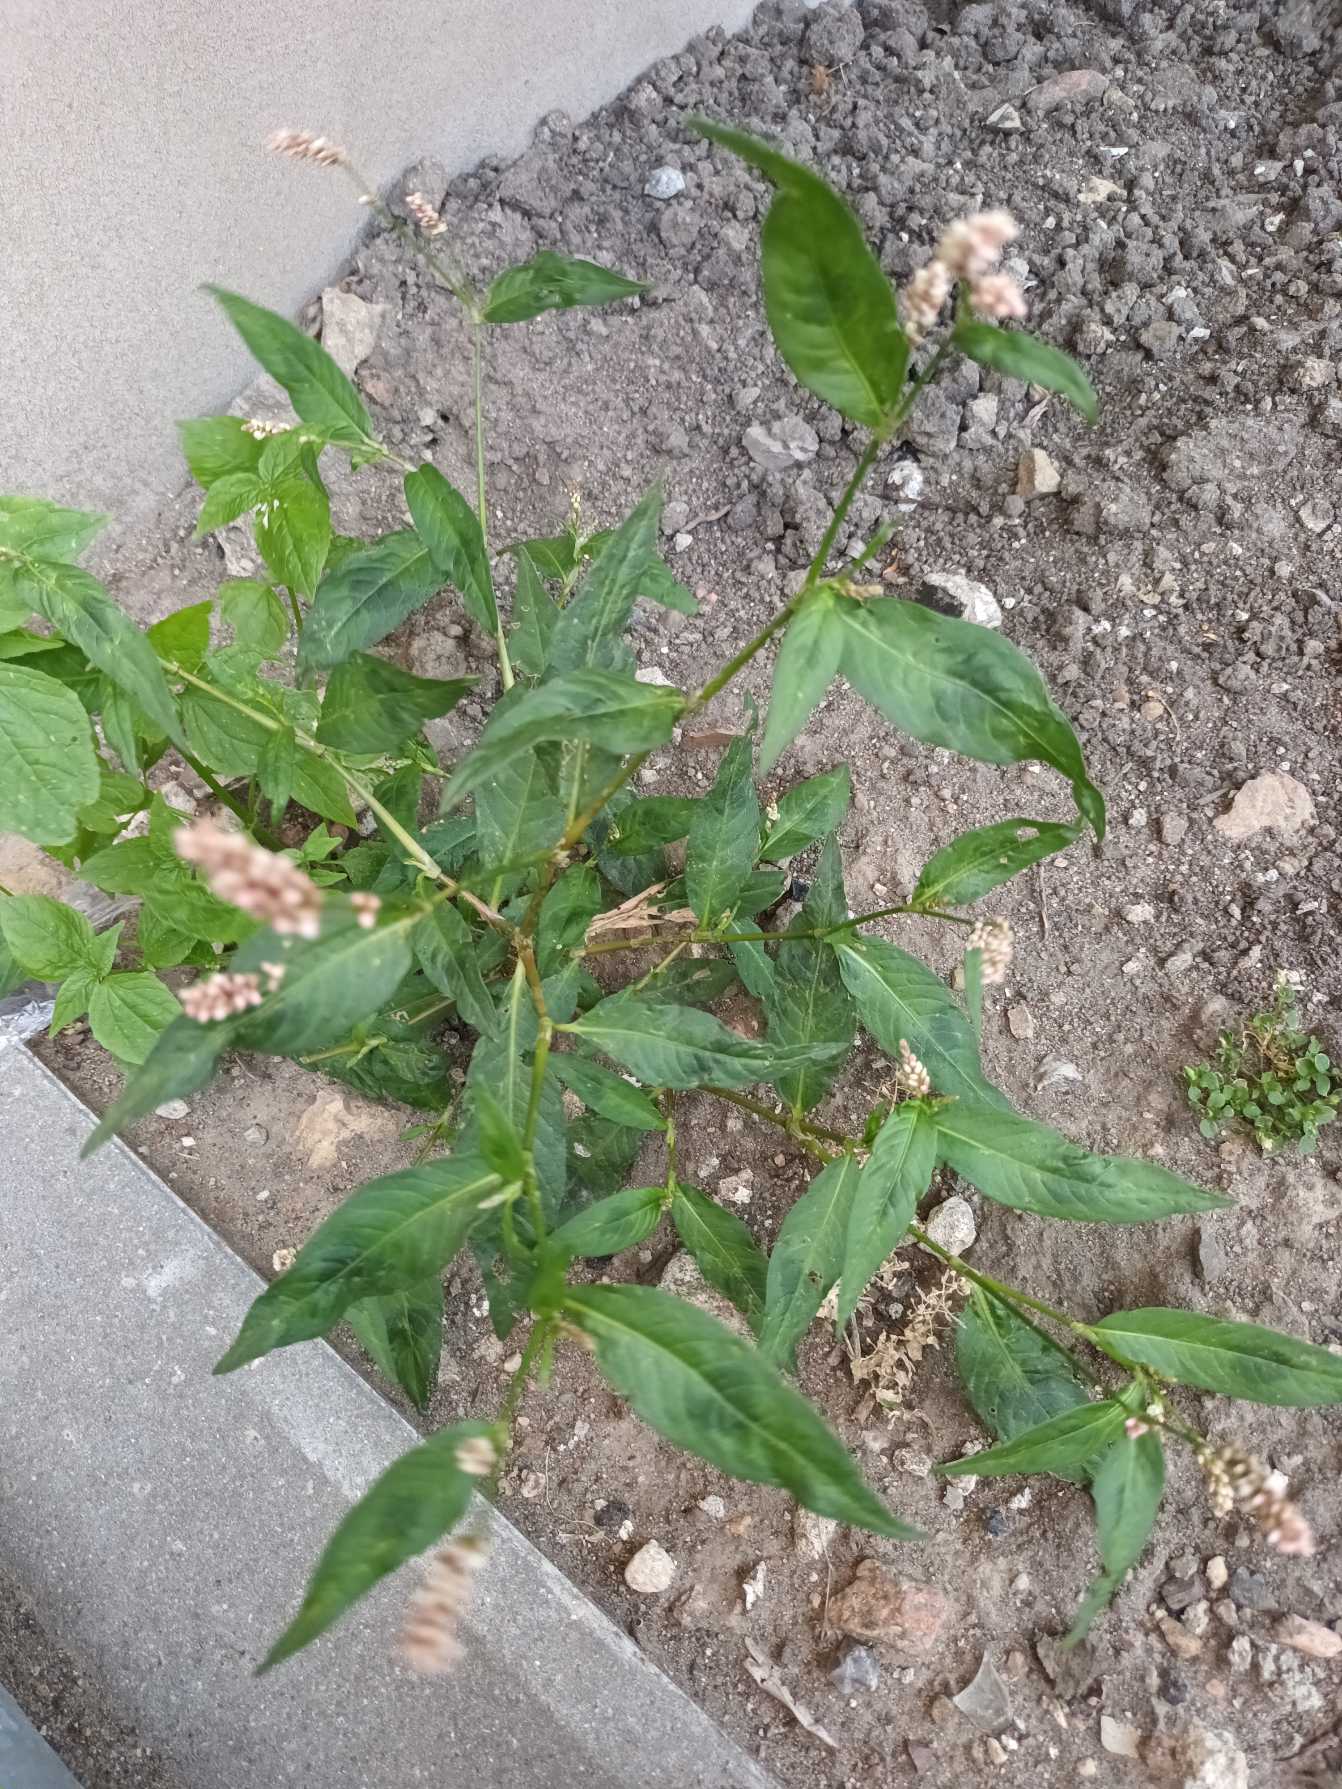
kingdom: Plantae
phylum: Tracheophyta
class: Magnoliopsida
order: Caryophyllales
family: Polygonaceae
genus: Persicaria
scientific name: Persicaria maculosa
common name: Fersken-pileurt
